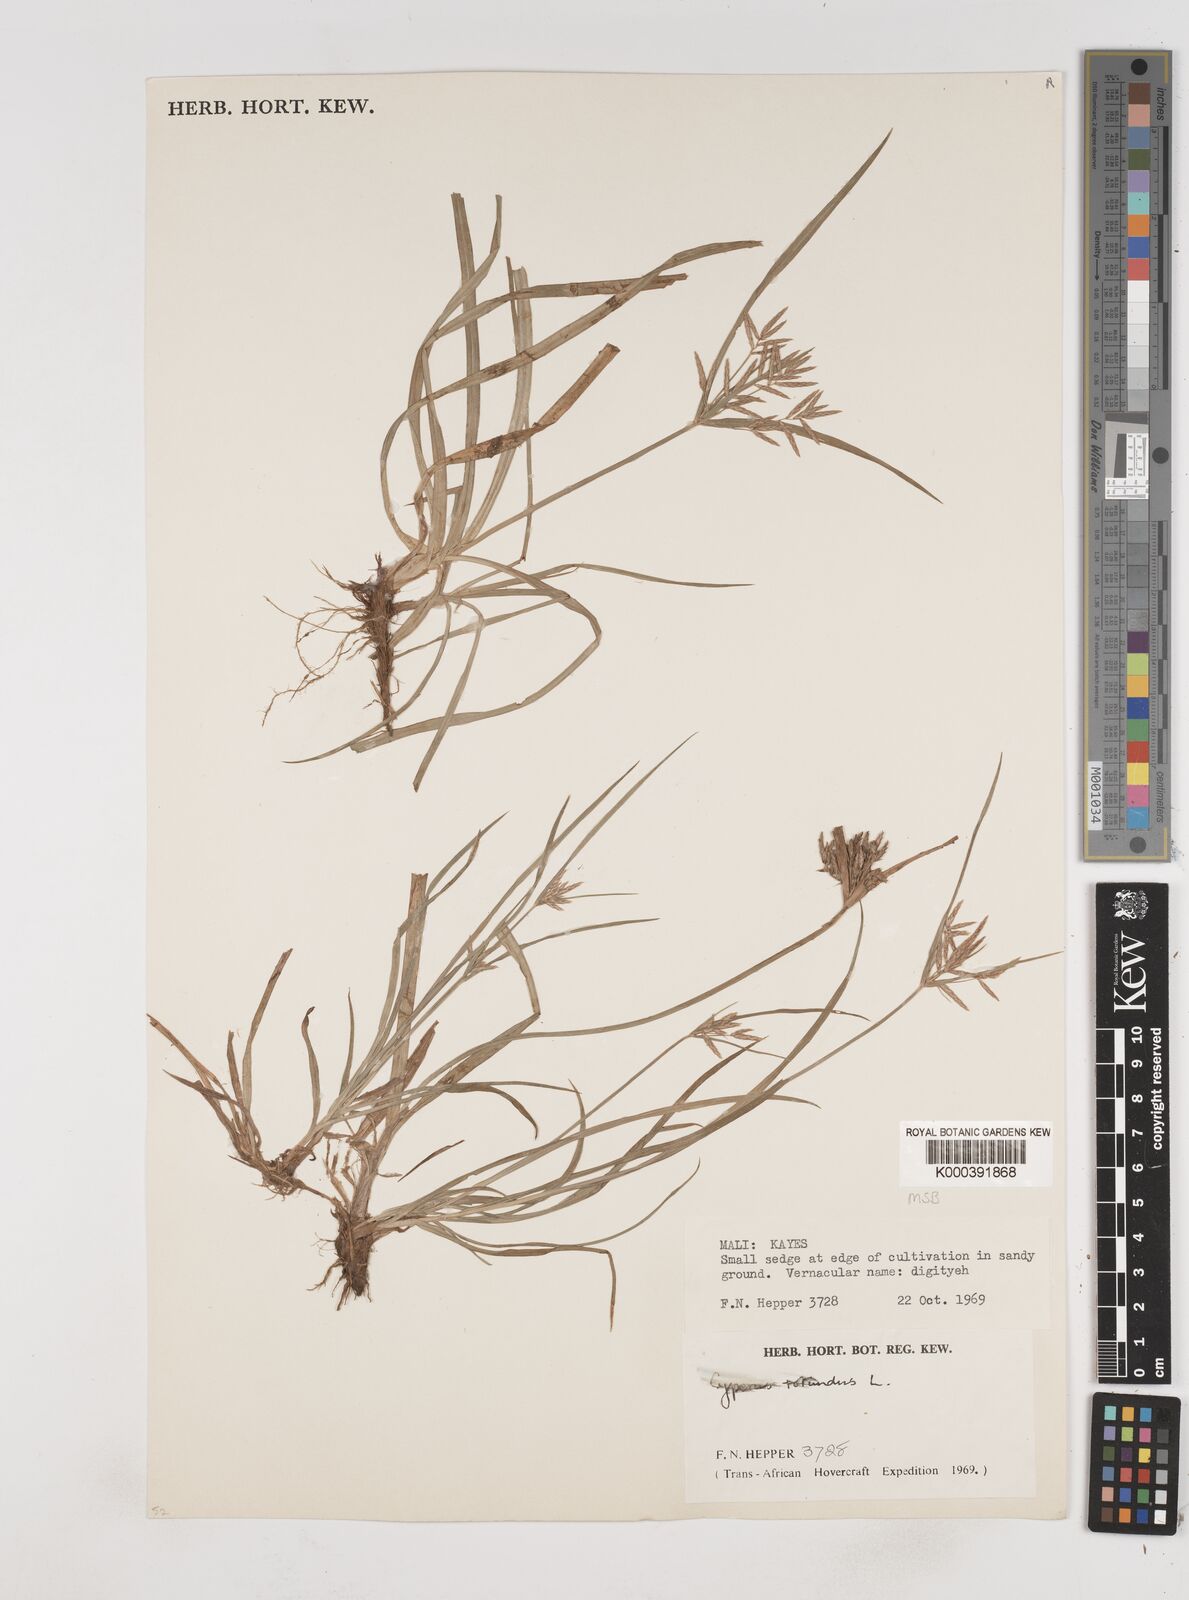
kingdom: Plantae
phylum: Tracheophyta
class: Liliopsida
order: Poales
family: Cyperaceae
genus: Cyperus
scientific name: Cyperus rotundus
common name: Nutgrass
